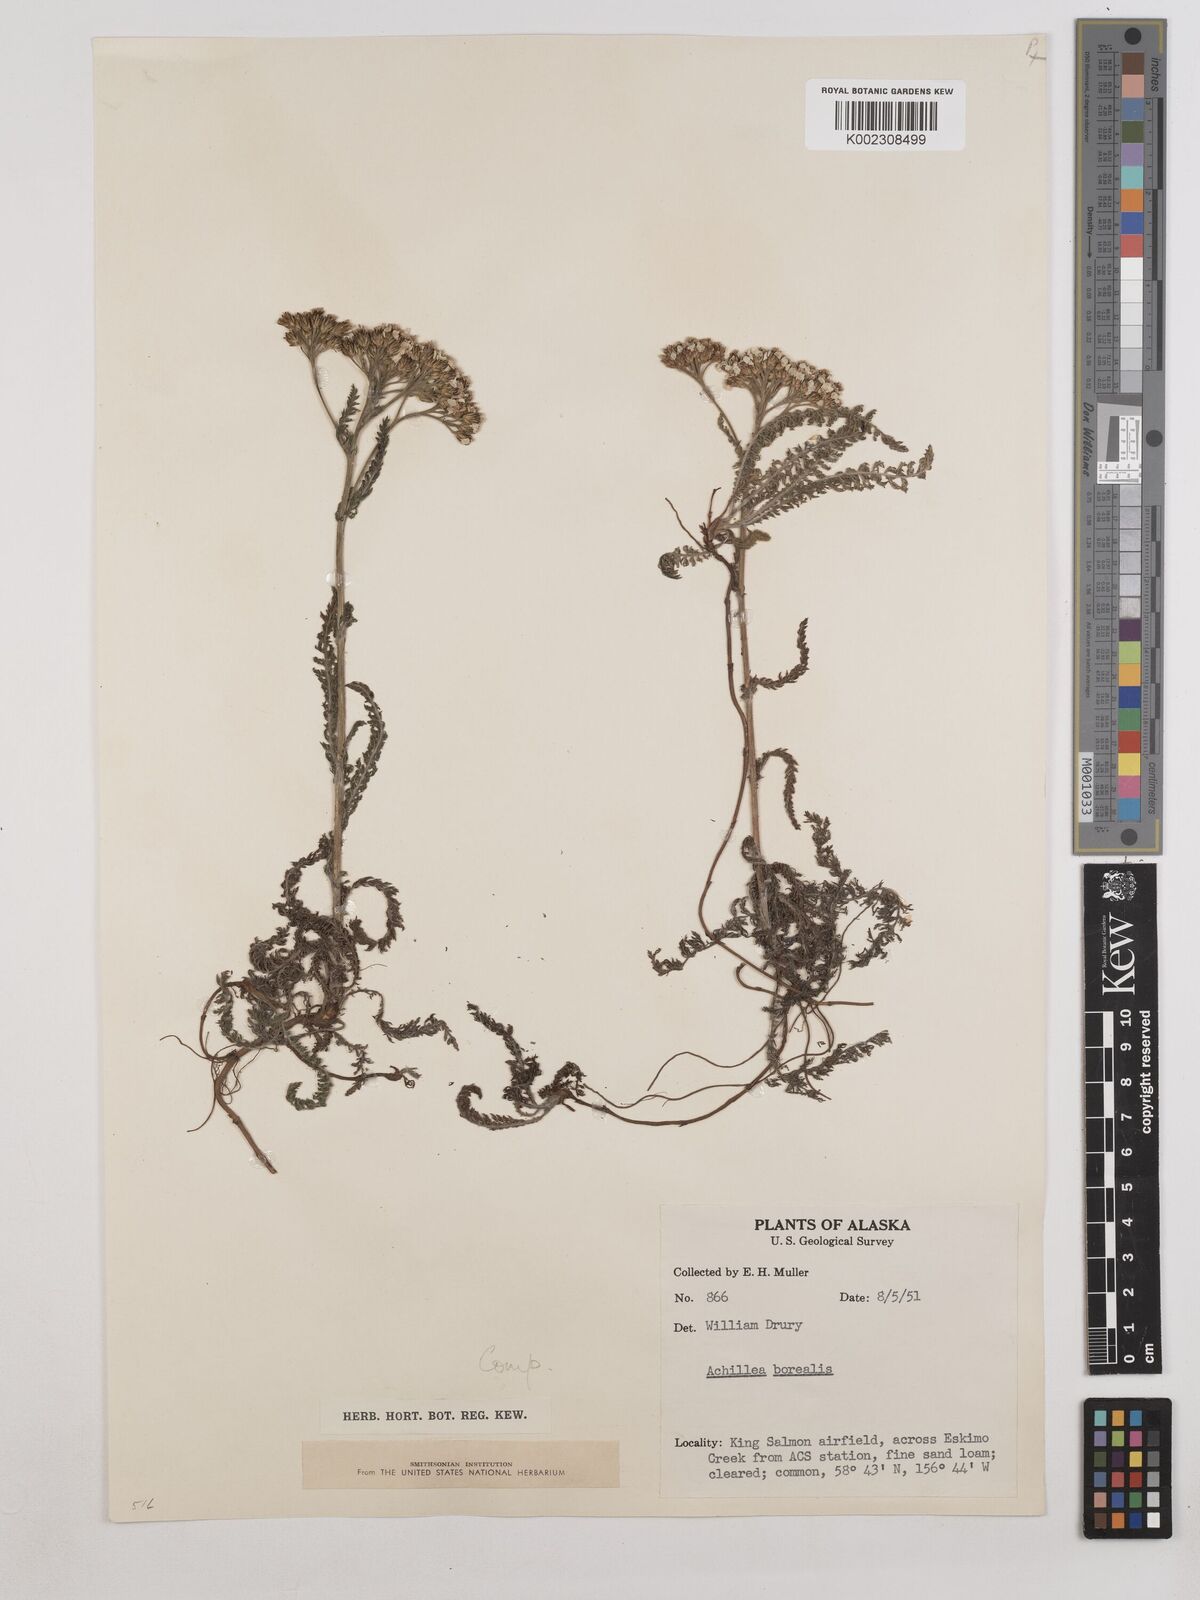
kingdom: Plantae
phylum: Tracheophyta
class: Magnoliopsida
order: Asterales
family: Asteraceae
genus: Achillea
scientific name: Achillea millefolium
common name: Yarrow
